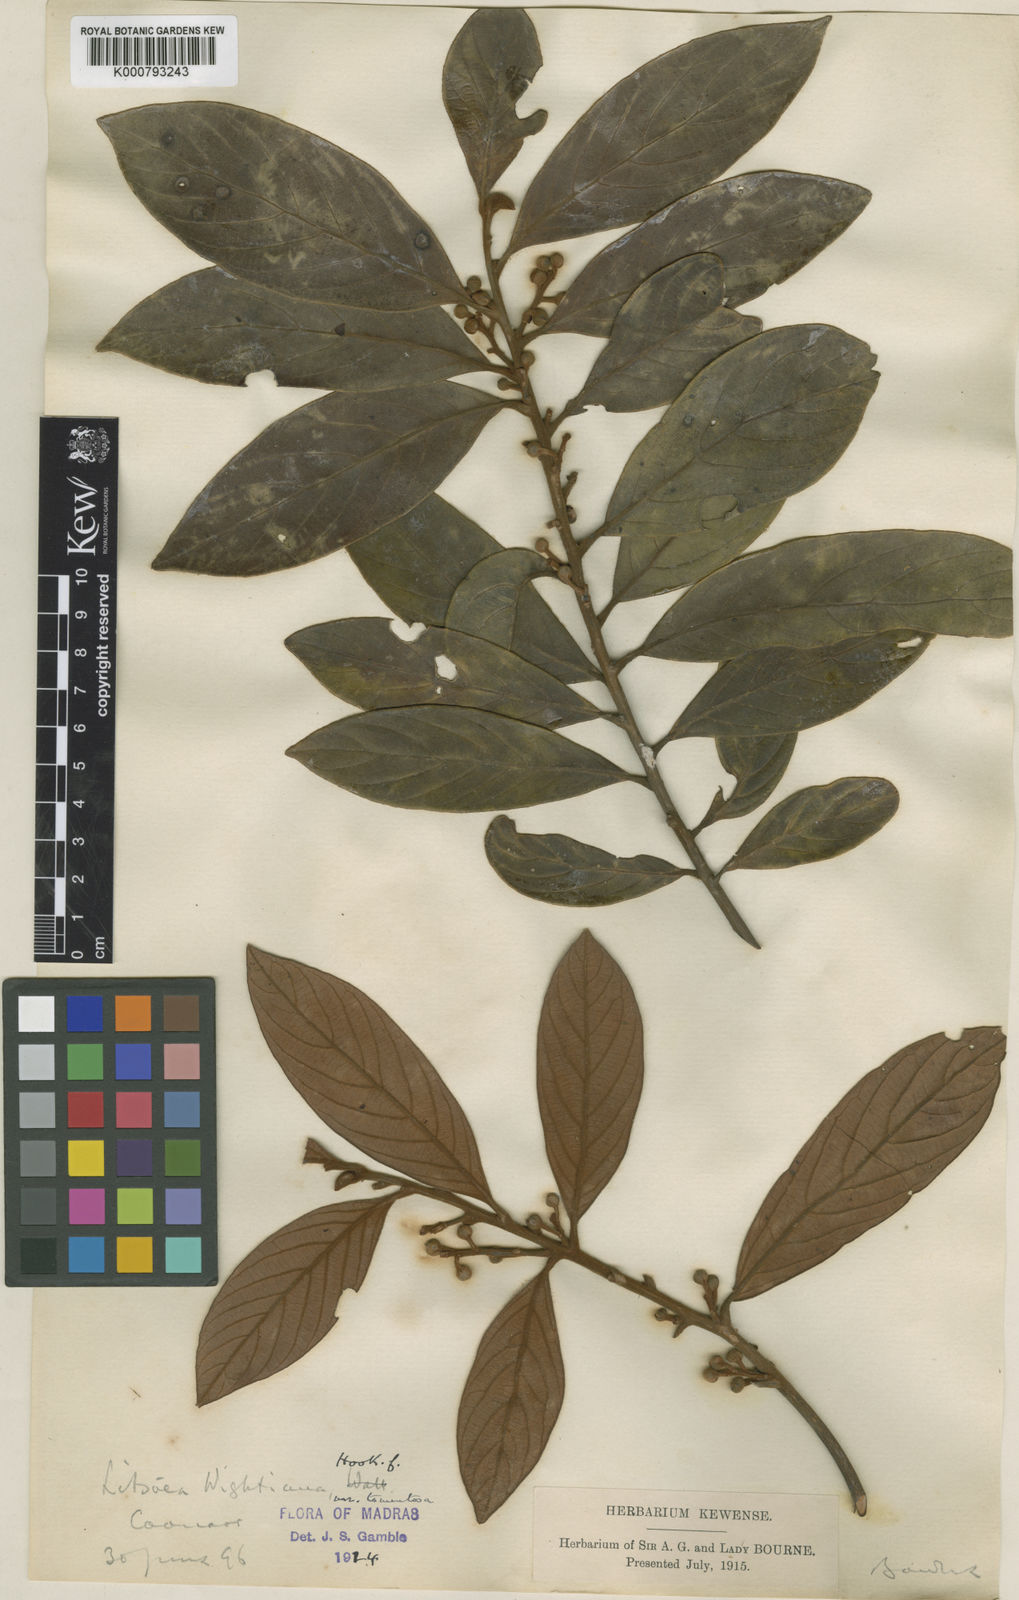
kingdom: Plantae
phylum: Tracheophyta
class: Magnoliopsida
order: Laurales
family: Lauraceae
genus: Litsea
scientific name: Litsea wightiana
